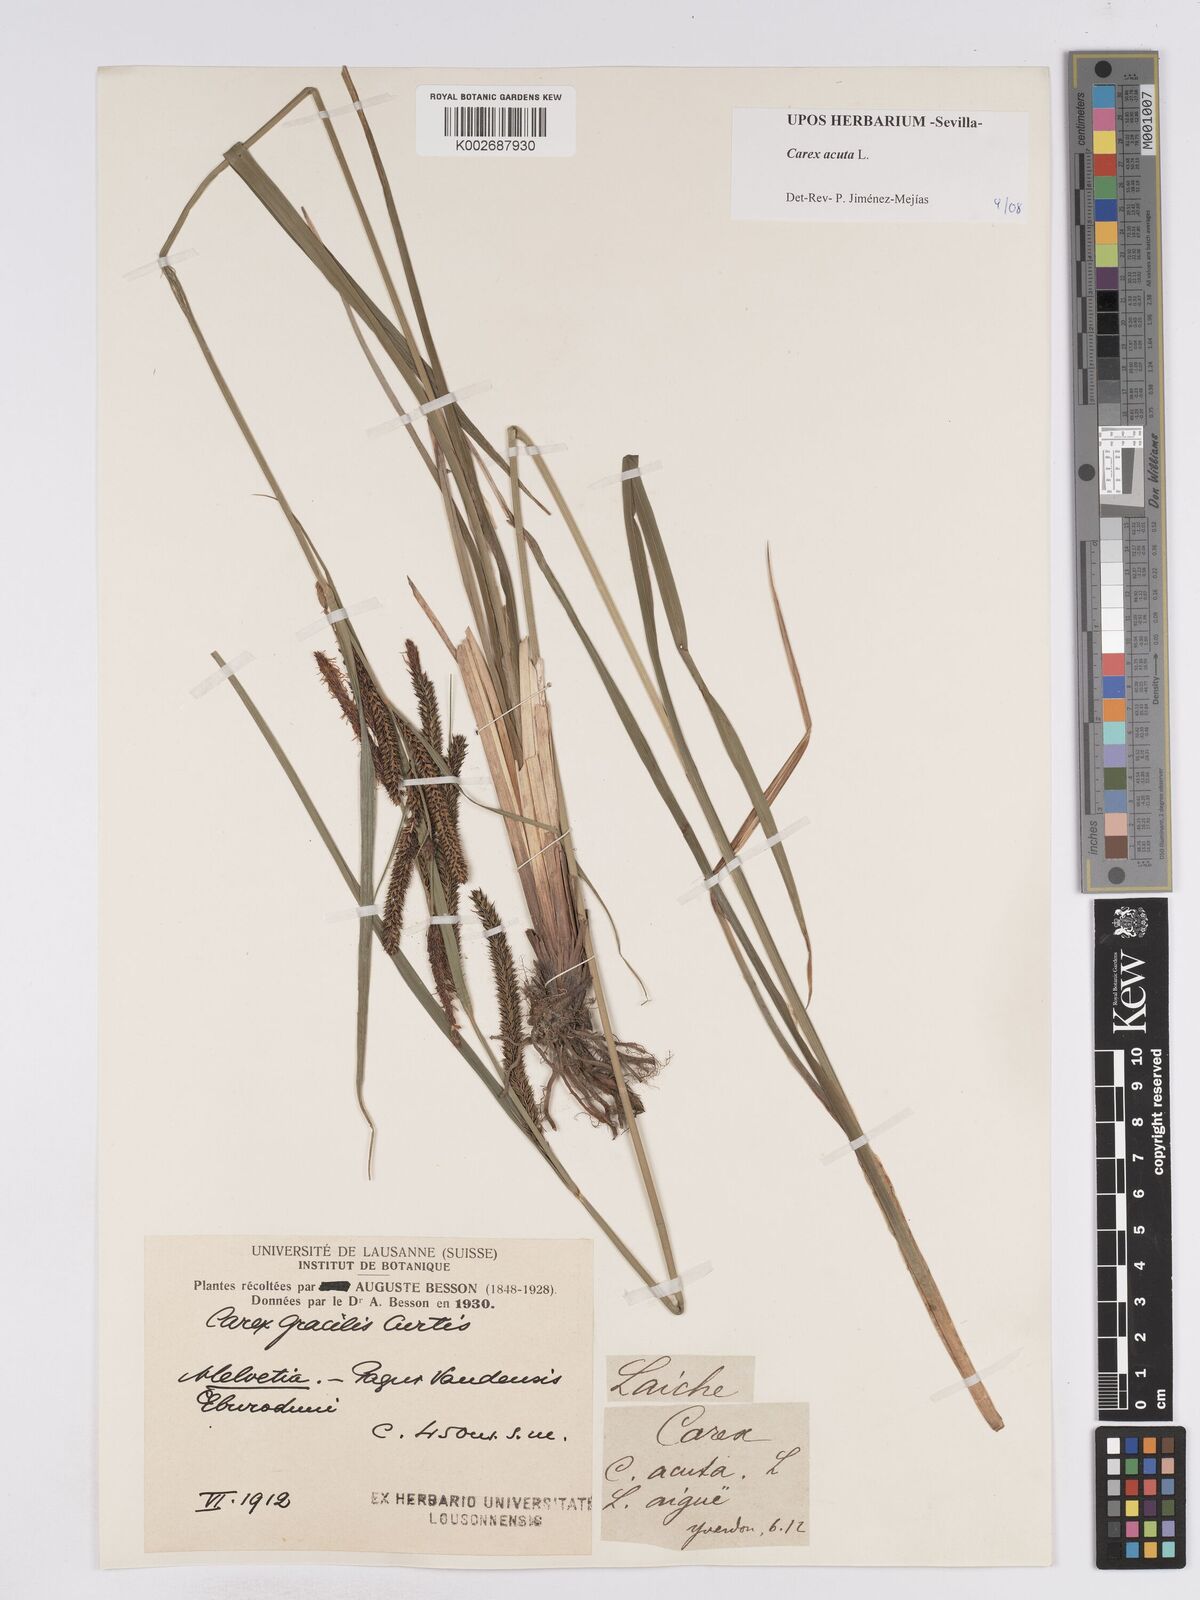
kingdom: Plantae
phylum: Tracheophyta
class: Liliopsida
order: Poales
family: Cyperaceae
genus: Carex
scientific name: Carex acuta
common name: Slender tufted-sedge
